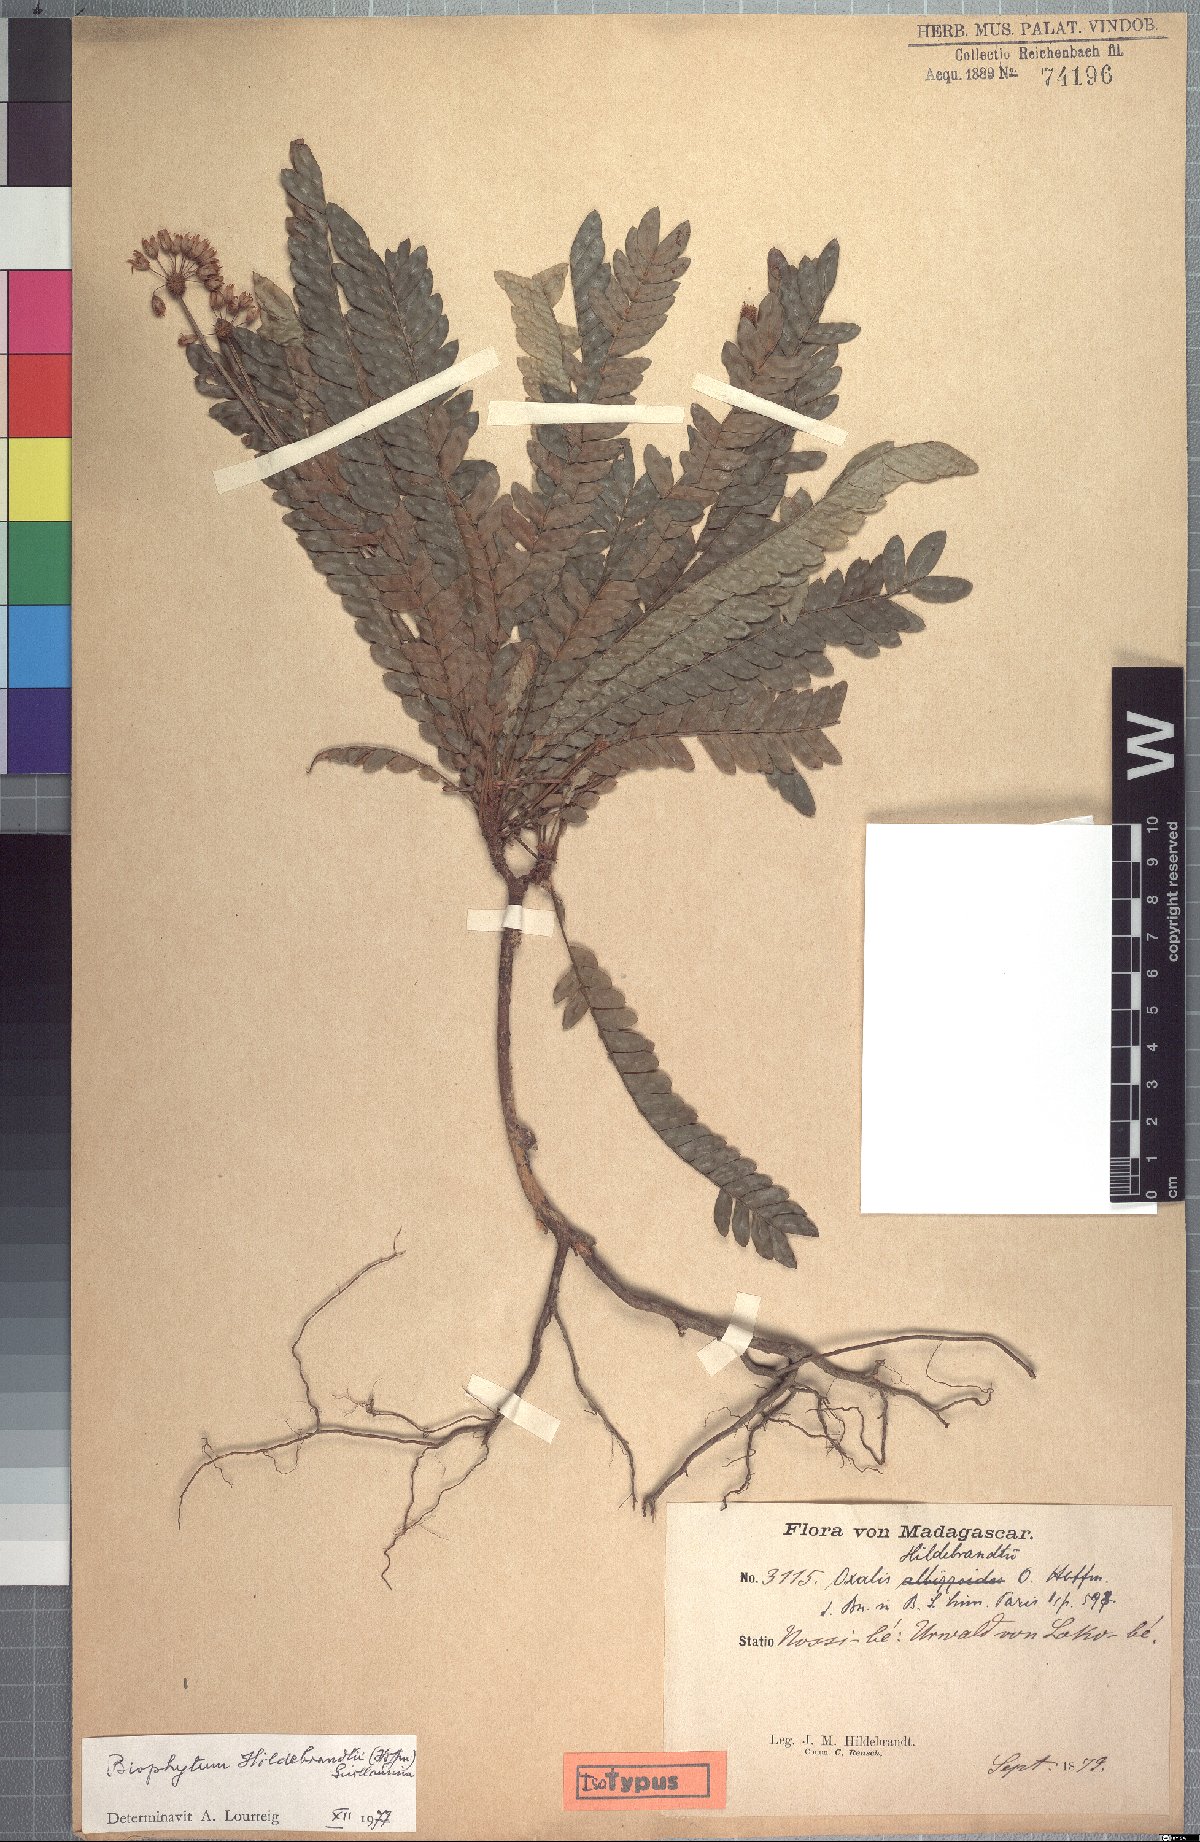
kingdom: Plantae
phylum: Tracheophyta
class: Magnoliopsida
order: Oxalidales
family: Oxalidaceae
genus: Oxalis
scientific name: Oxalis xiphophylla
